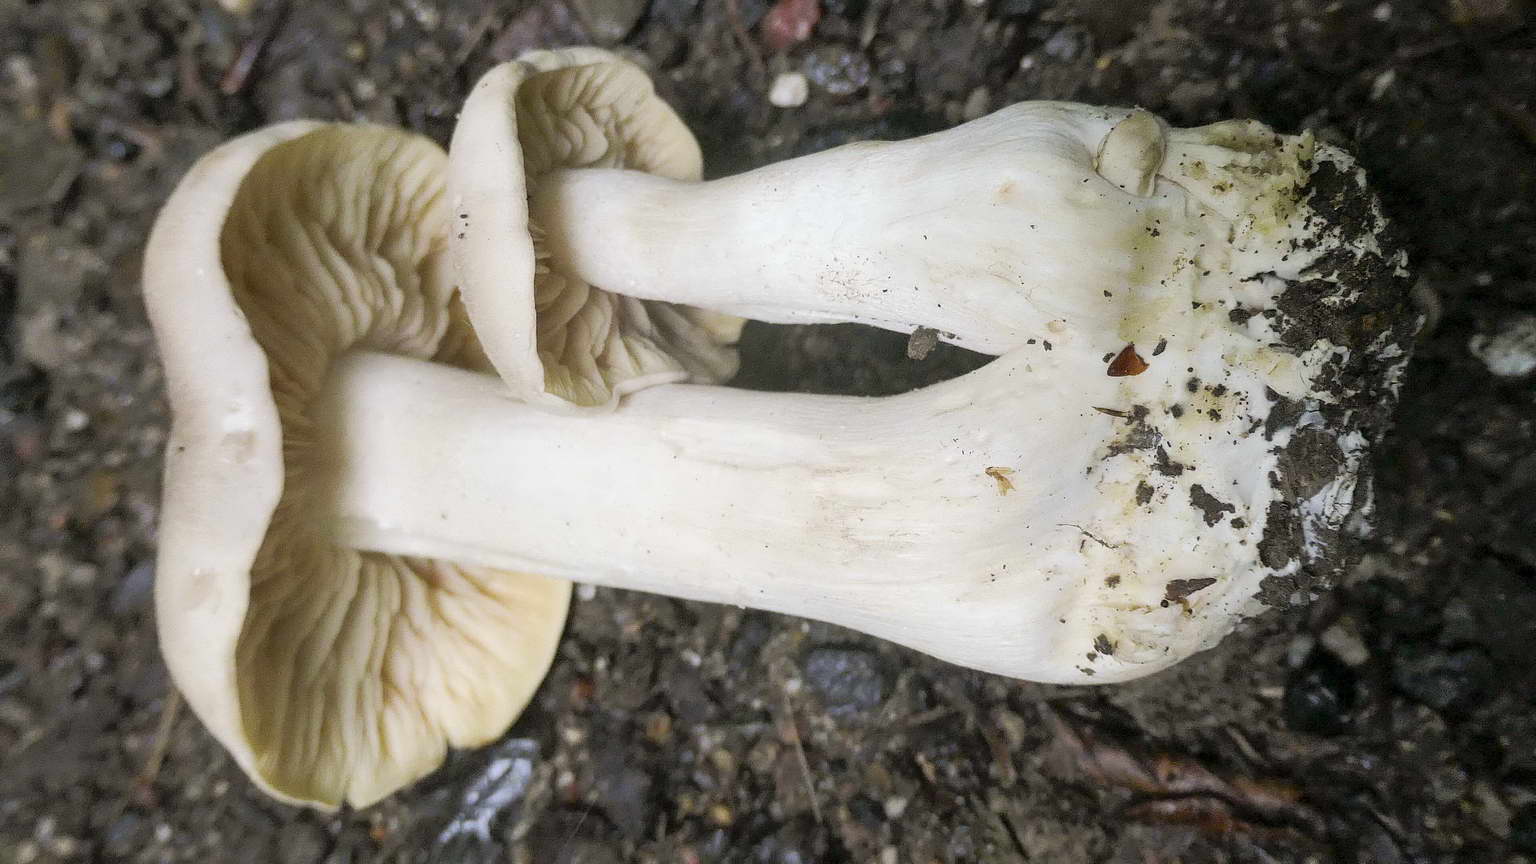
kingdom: Fungi
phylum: Basidiomycota
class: Agaricomycetes
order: Agaricales
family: Entolomataceae
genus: Entoloma
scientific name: Entoloma sinuatum
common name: giftig rødblad
